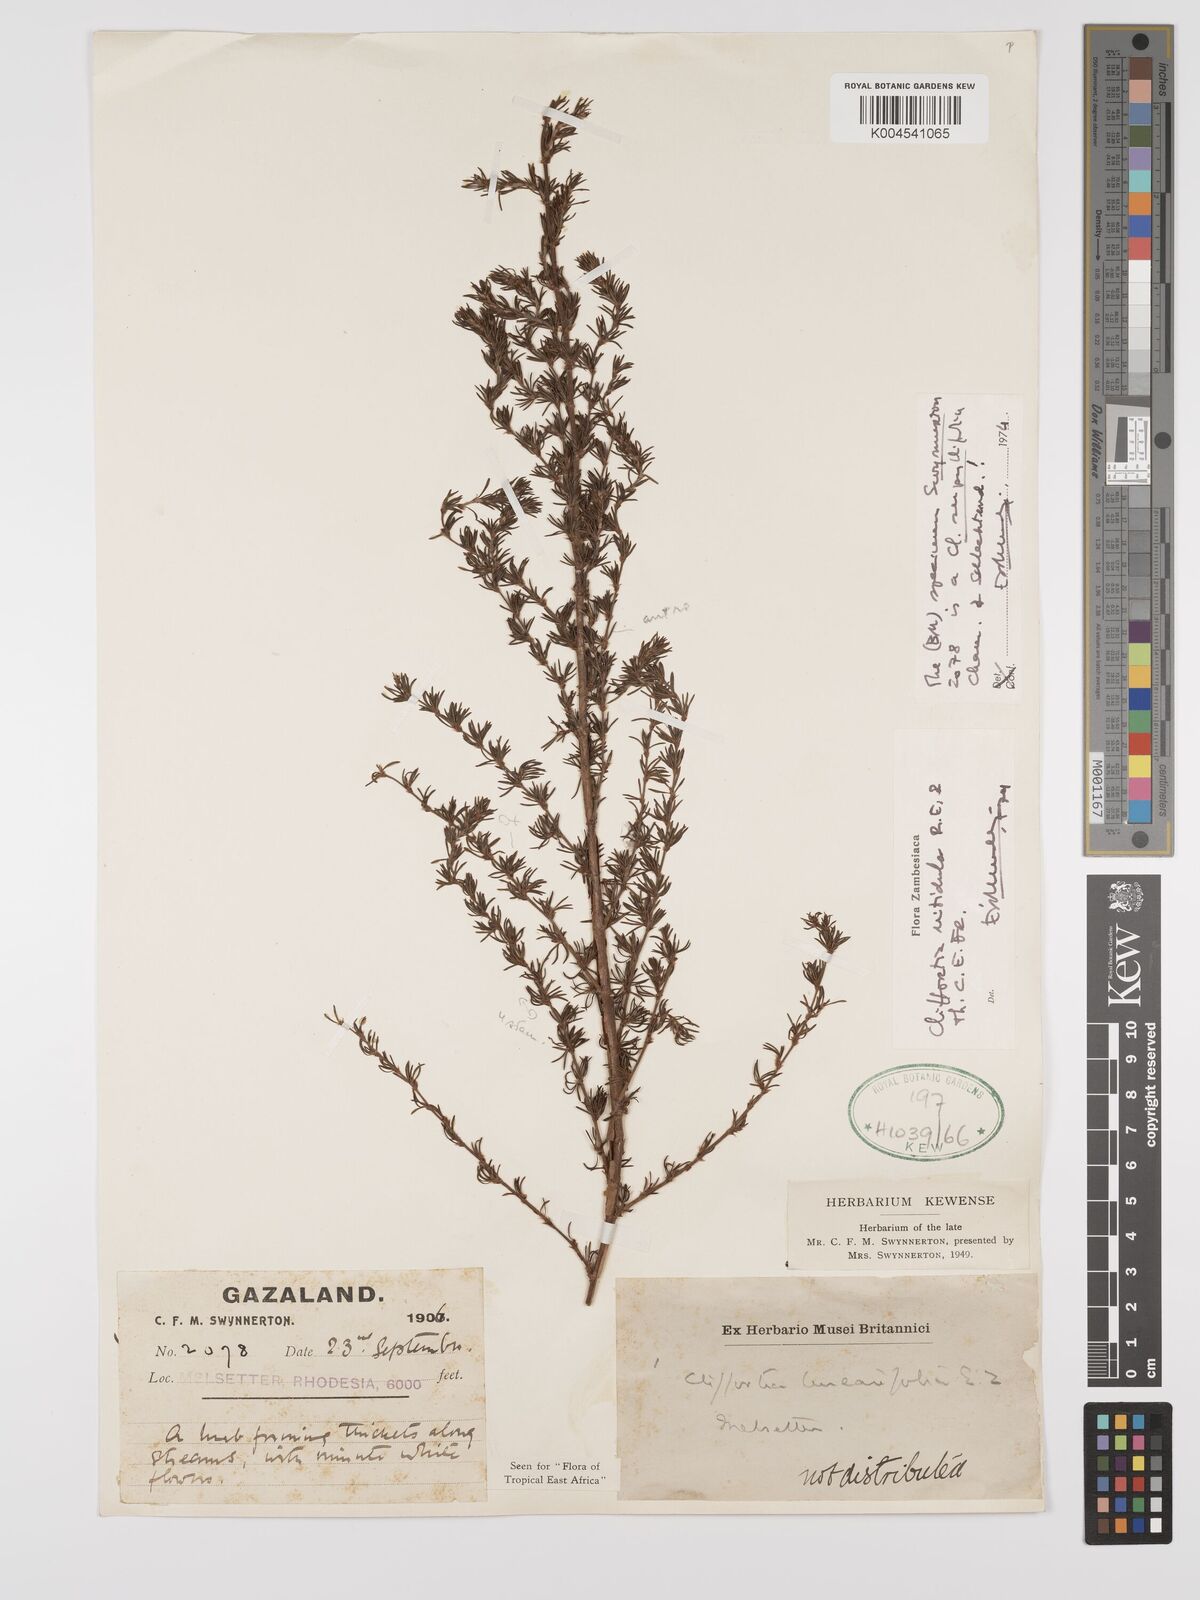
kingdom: Plantae
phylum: Tracheophyta
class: Magnoliopsida
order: Rosales
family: Rosaceae
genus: Cliffortia
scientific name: Cliffortia linearifolia
